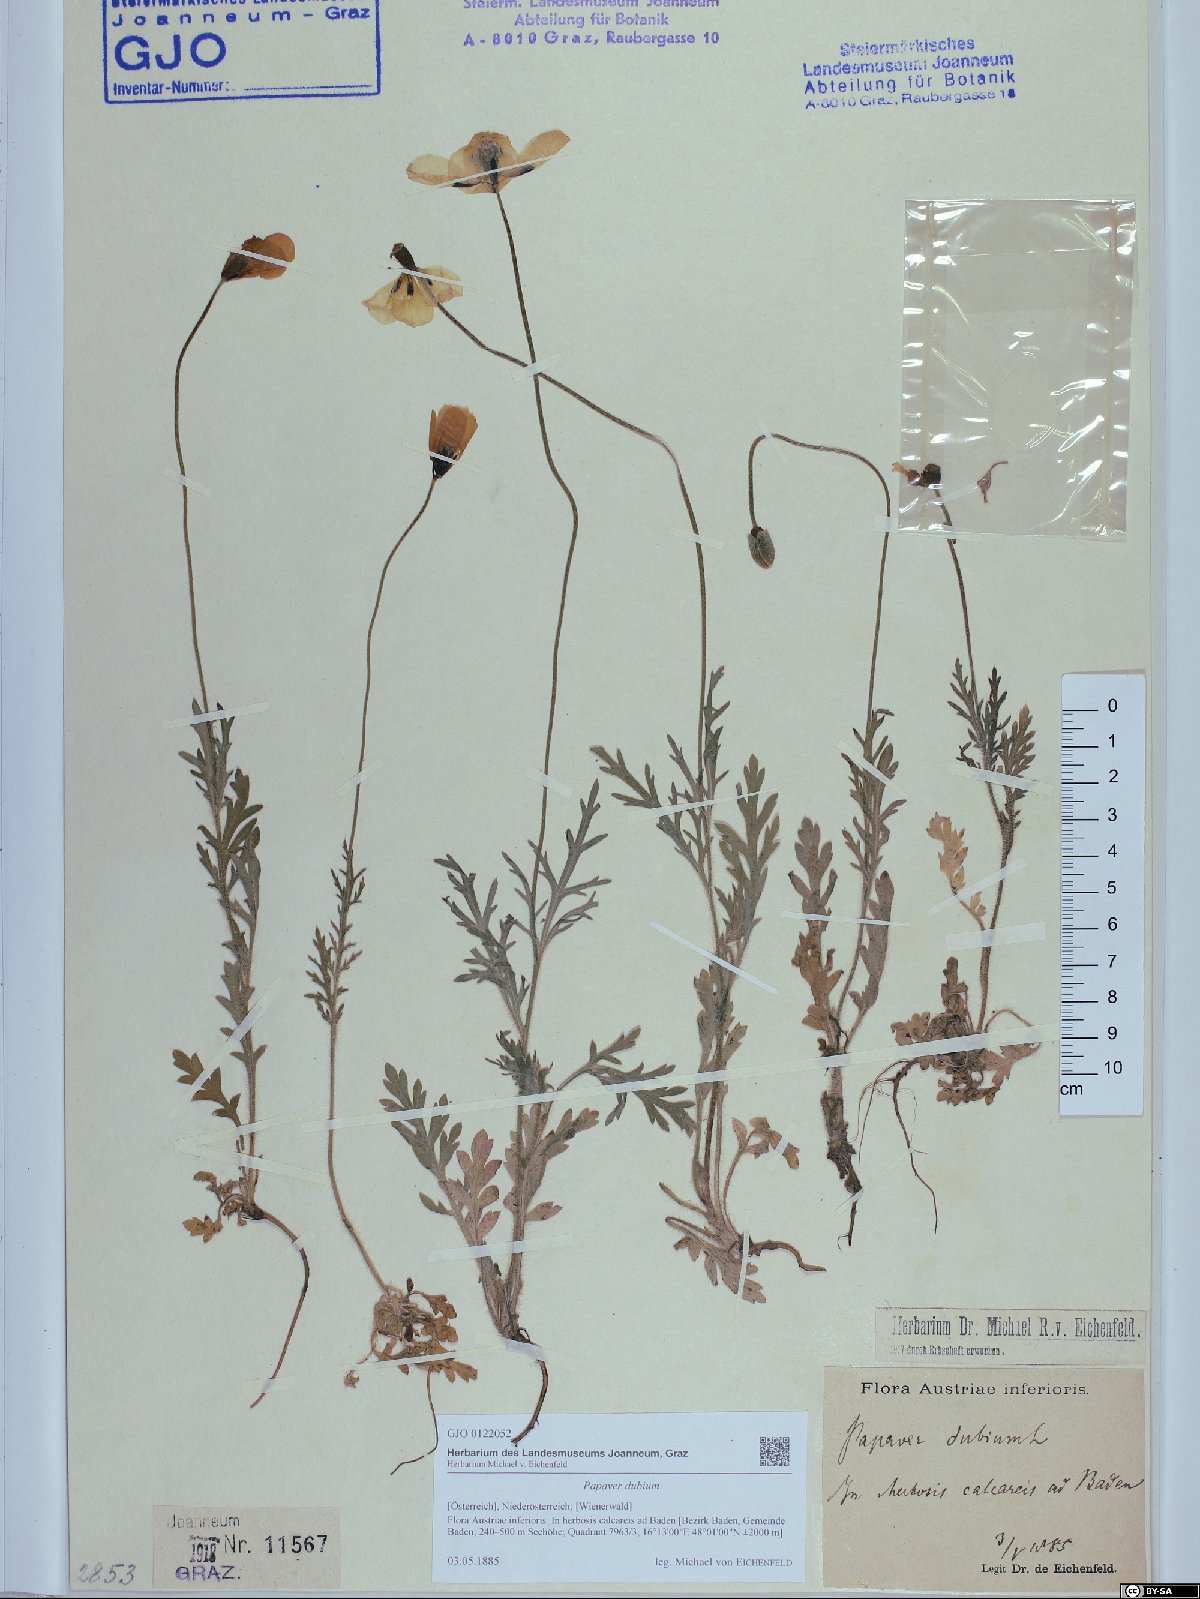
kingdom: Plantae
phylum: Tracheophyta
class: Magnoliopsida
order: Ranunculales
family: Papaveraceae
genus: Papaver
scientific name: Papaver dubium
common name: Long-headed poppy
